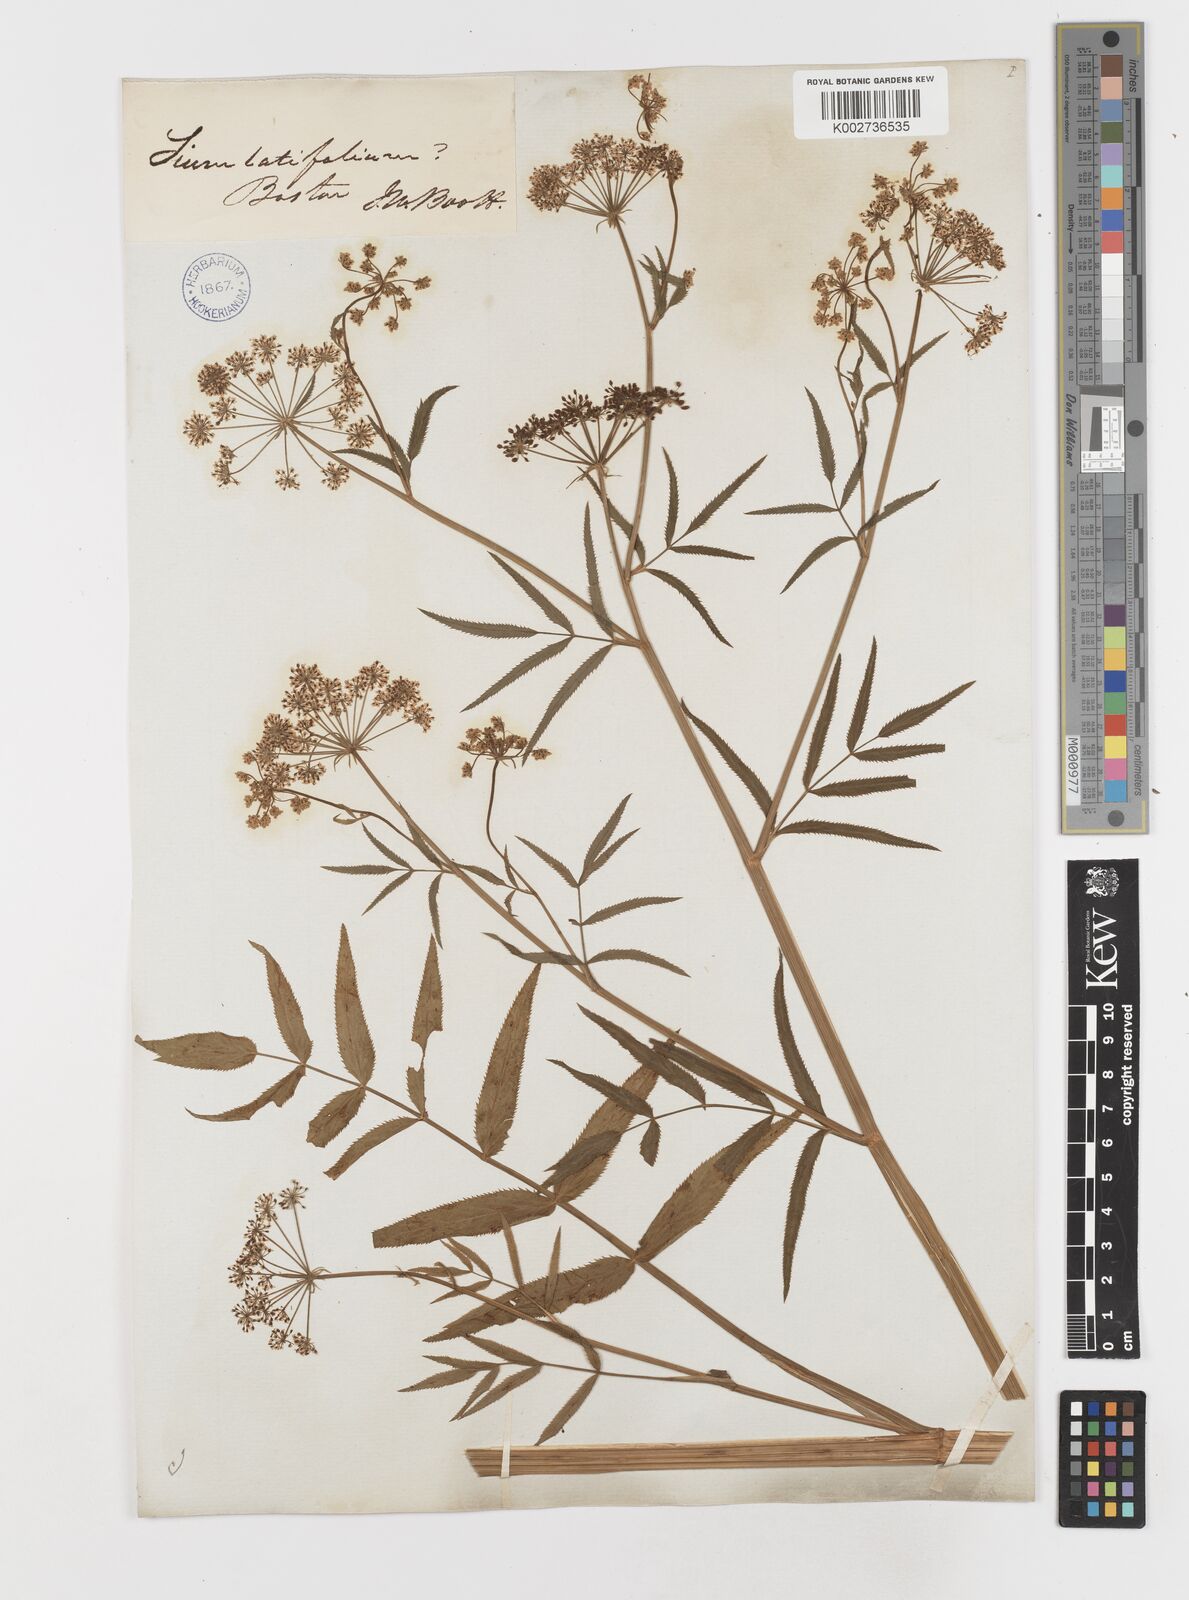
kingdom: Plantae
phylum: Tracheophyta
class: Magnoliopsida
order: Apiales
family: Apiaceae
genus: Sium
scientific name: Sium suave
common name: Hemlock water-parsnip
